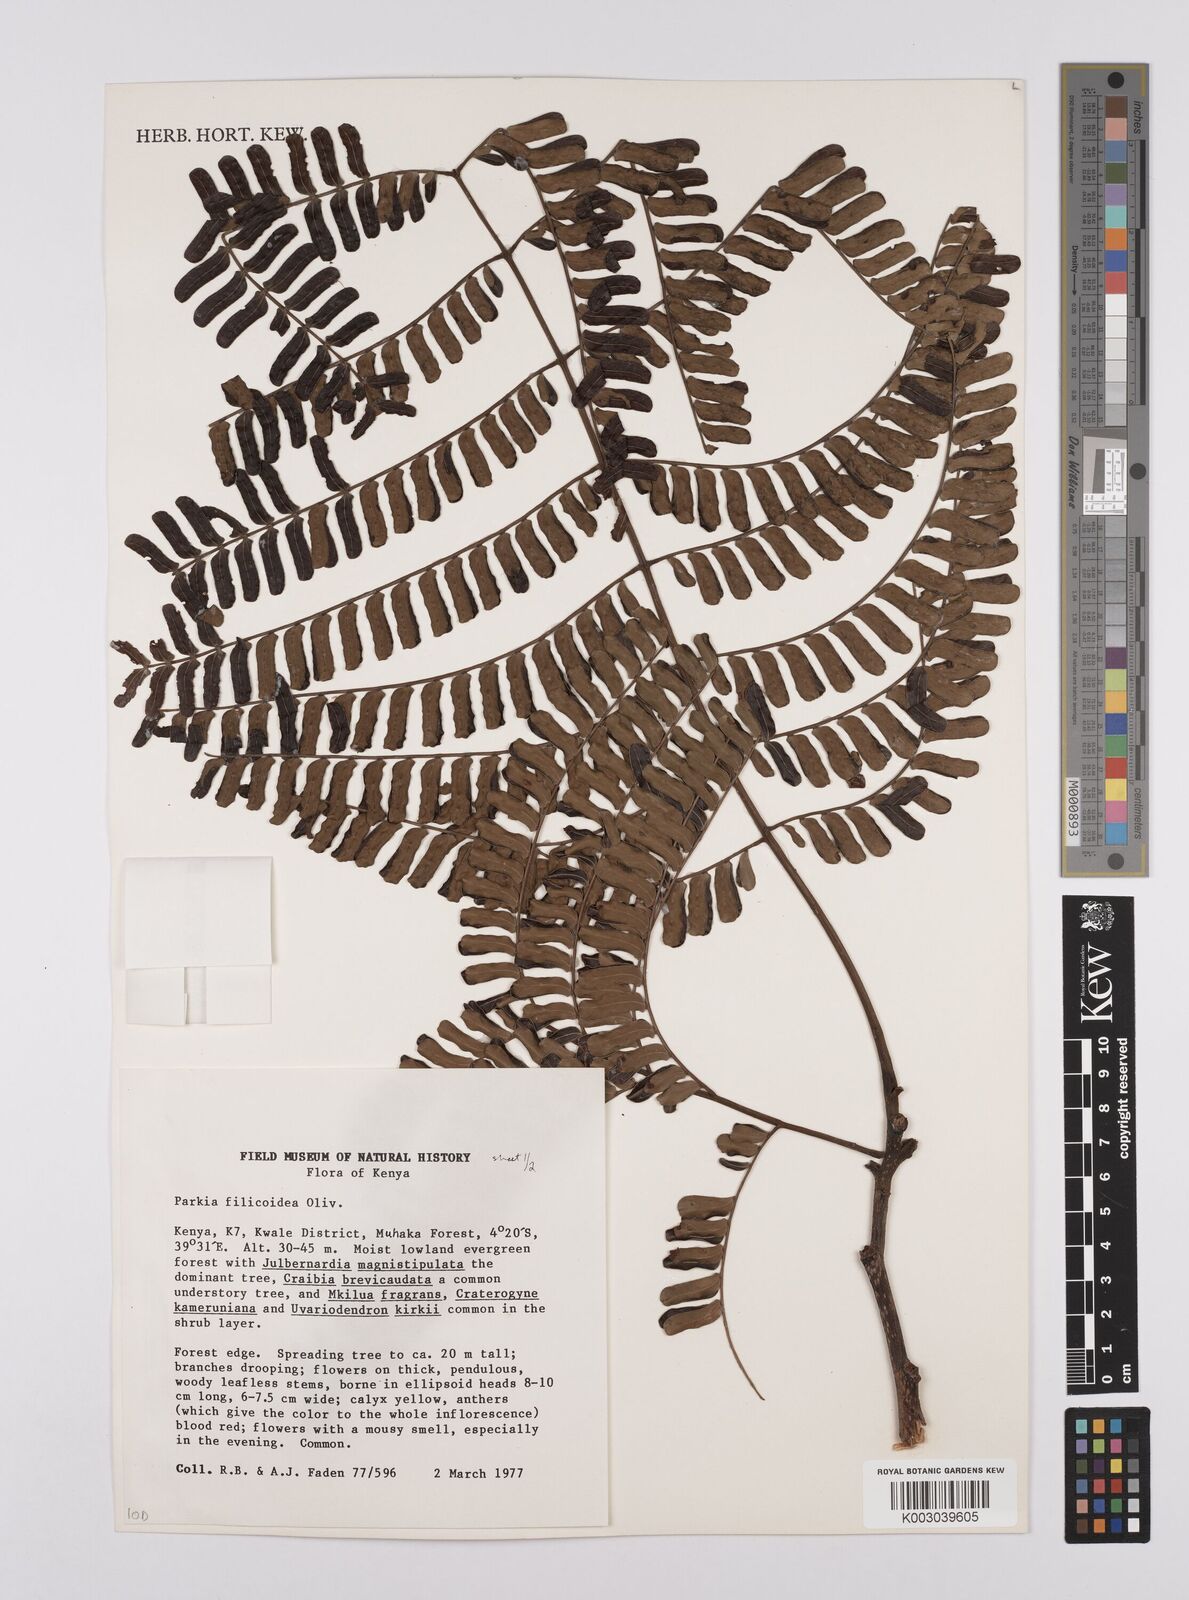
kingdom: Plantae
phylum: Tracheophyta
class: Magnoliopsida
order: Fabales
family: Fabaceae
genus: Parkia
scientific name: Parkia filicoidea
